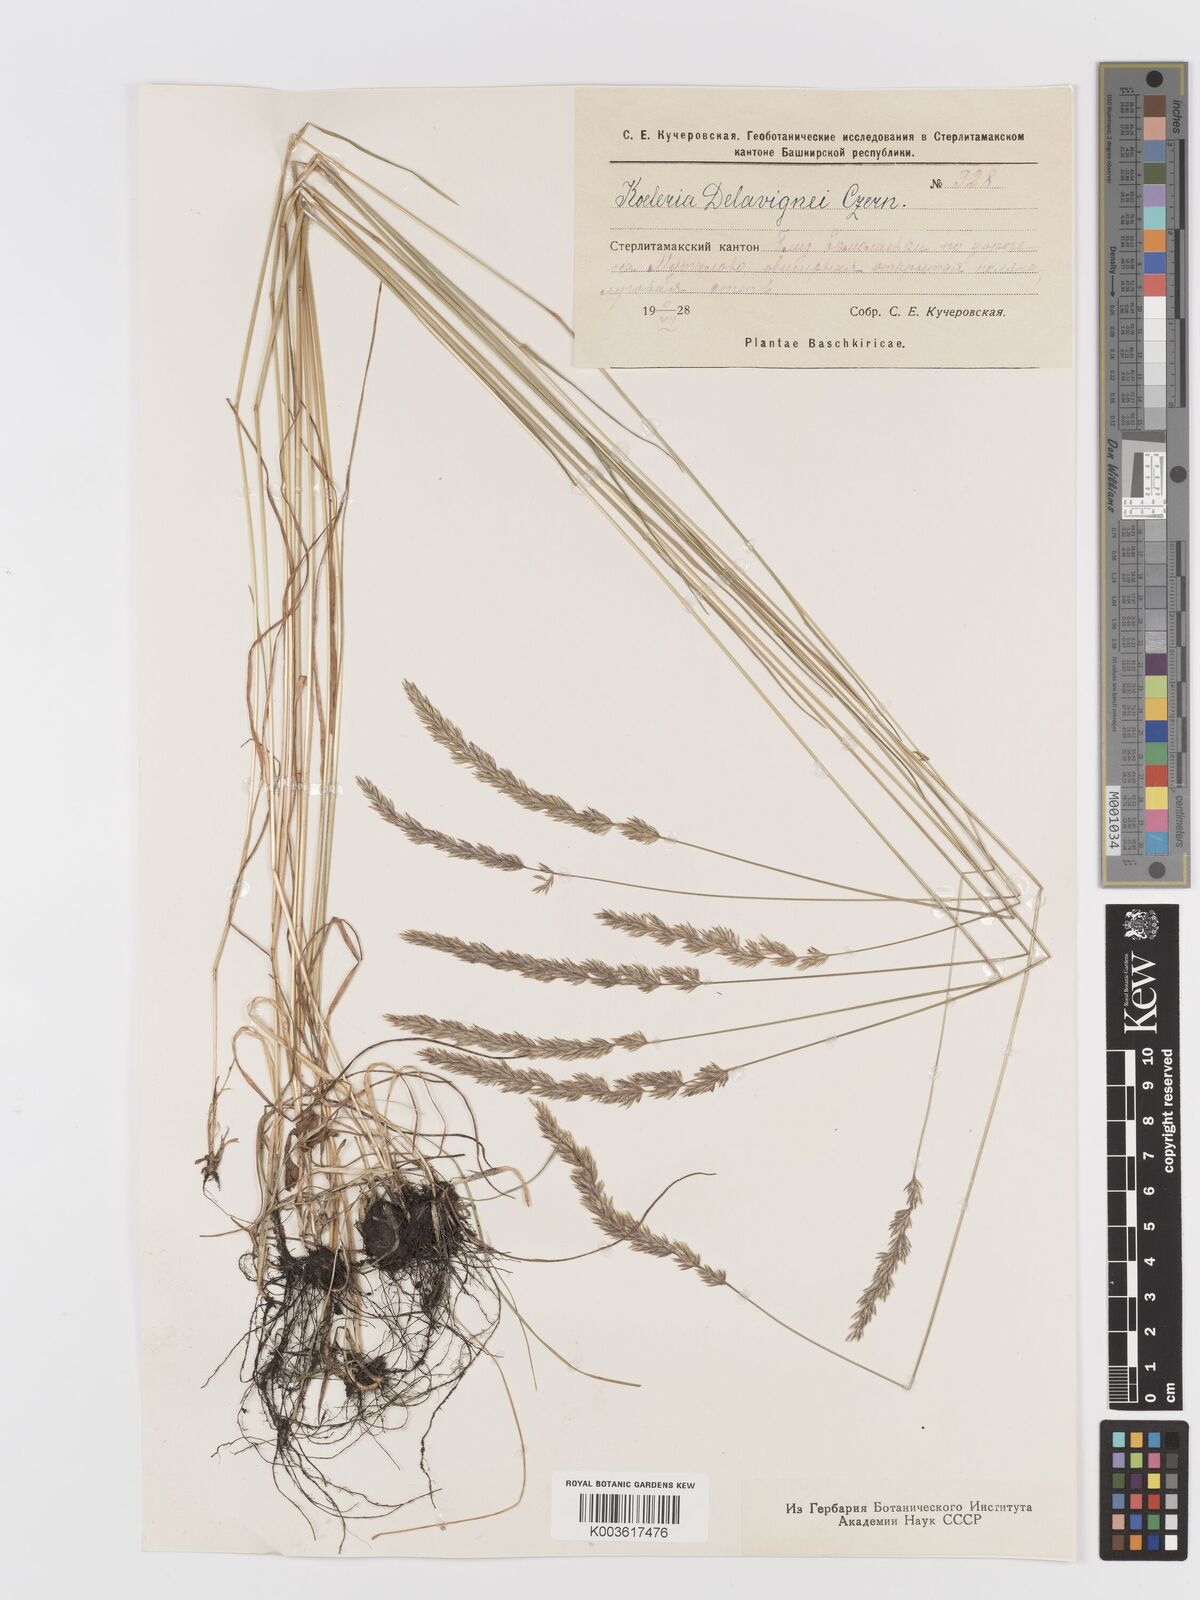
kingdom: Plantae
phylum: Tracheophyta
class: Liliopsida
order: Poales
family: Poaceae
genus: Koeleria
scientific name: Koeleria delavignei
